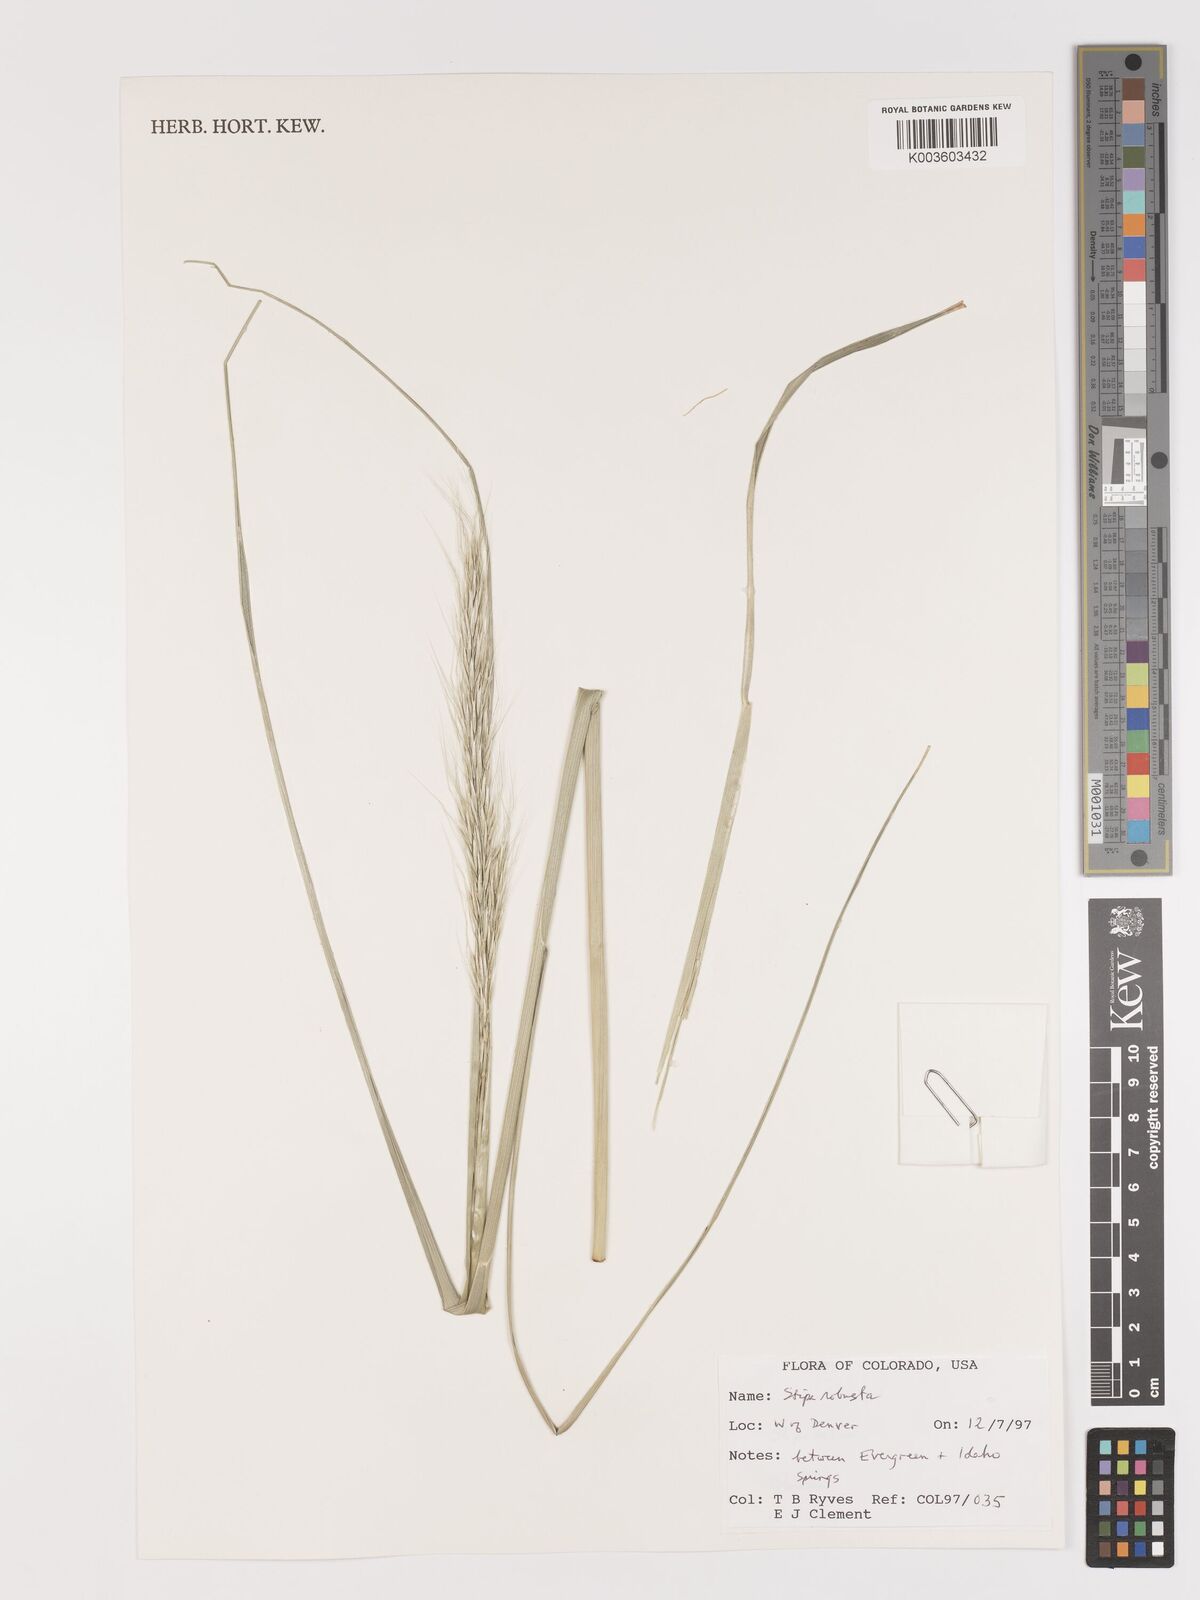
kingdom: Plantae
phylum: Tracheophyta
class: Liliopsida
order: Poales
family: Poaceae
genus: Eriocoma
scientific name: Eriocoma robusta
